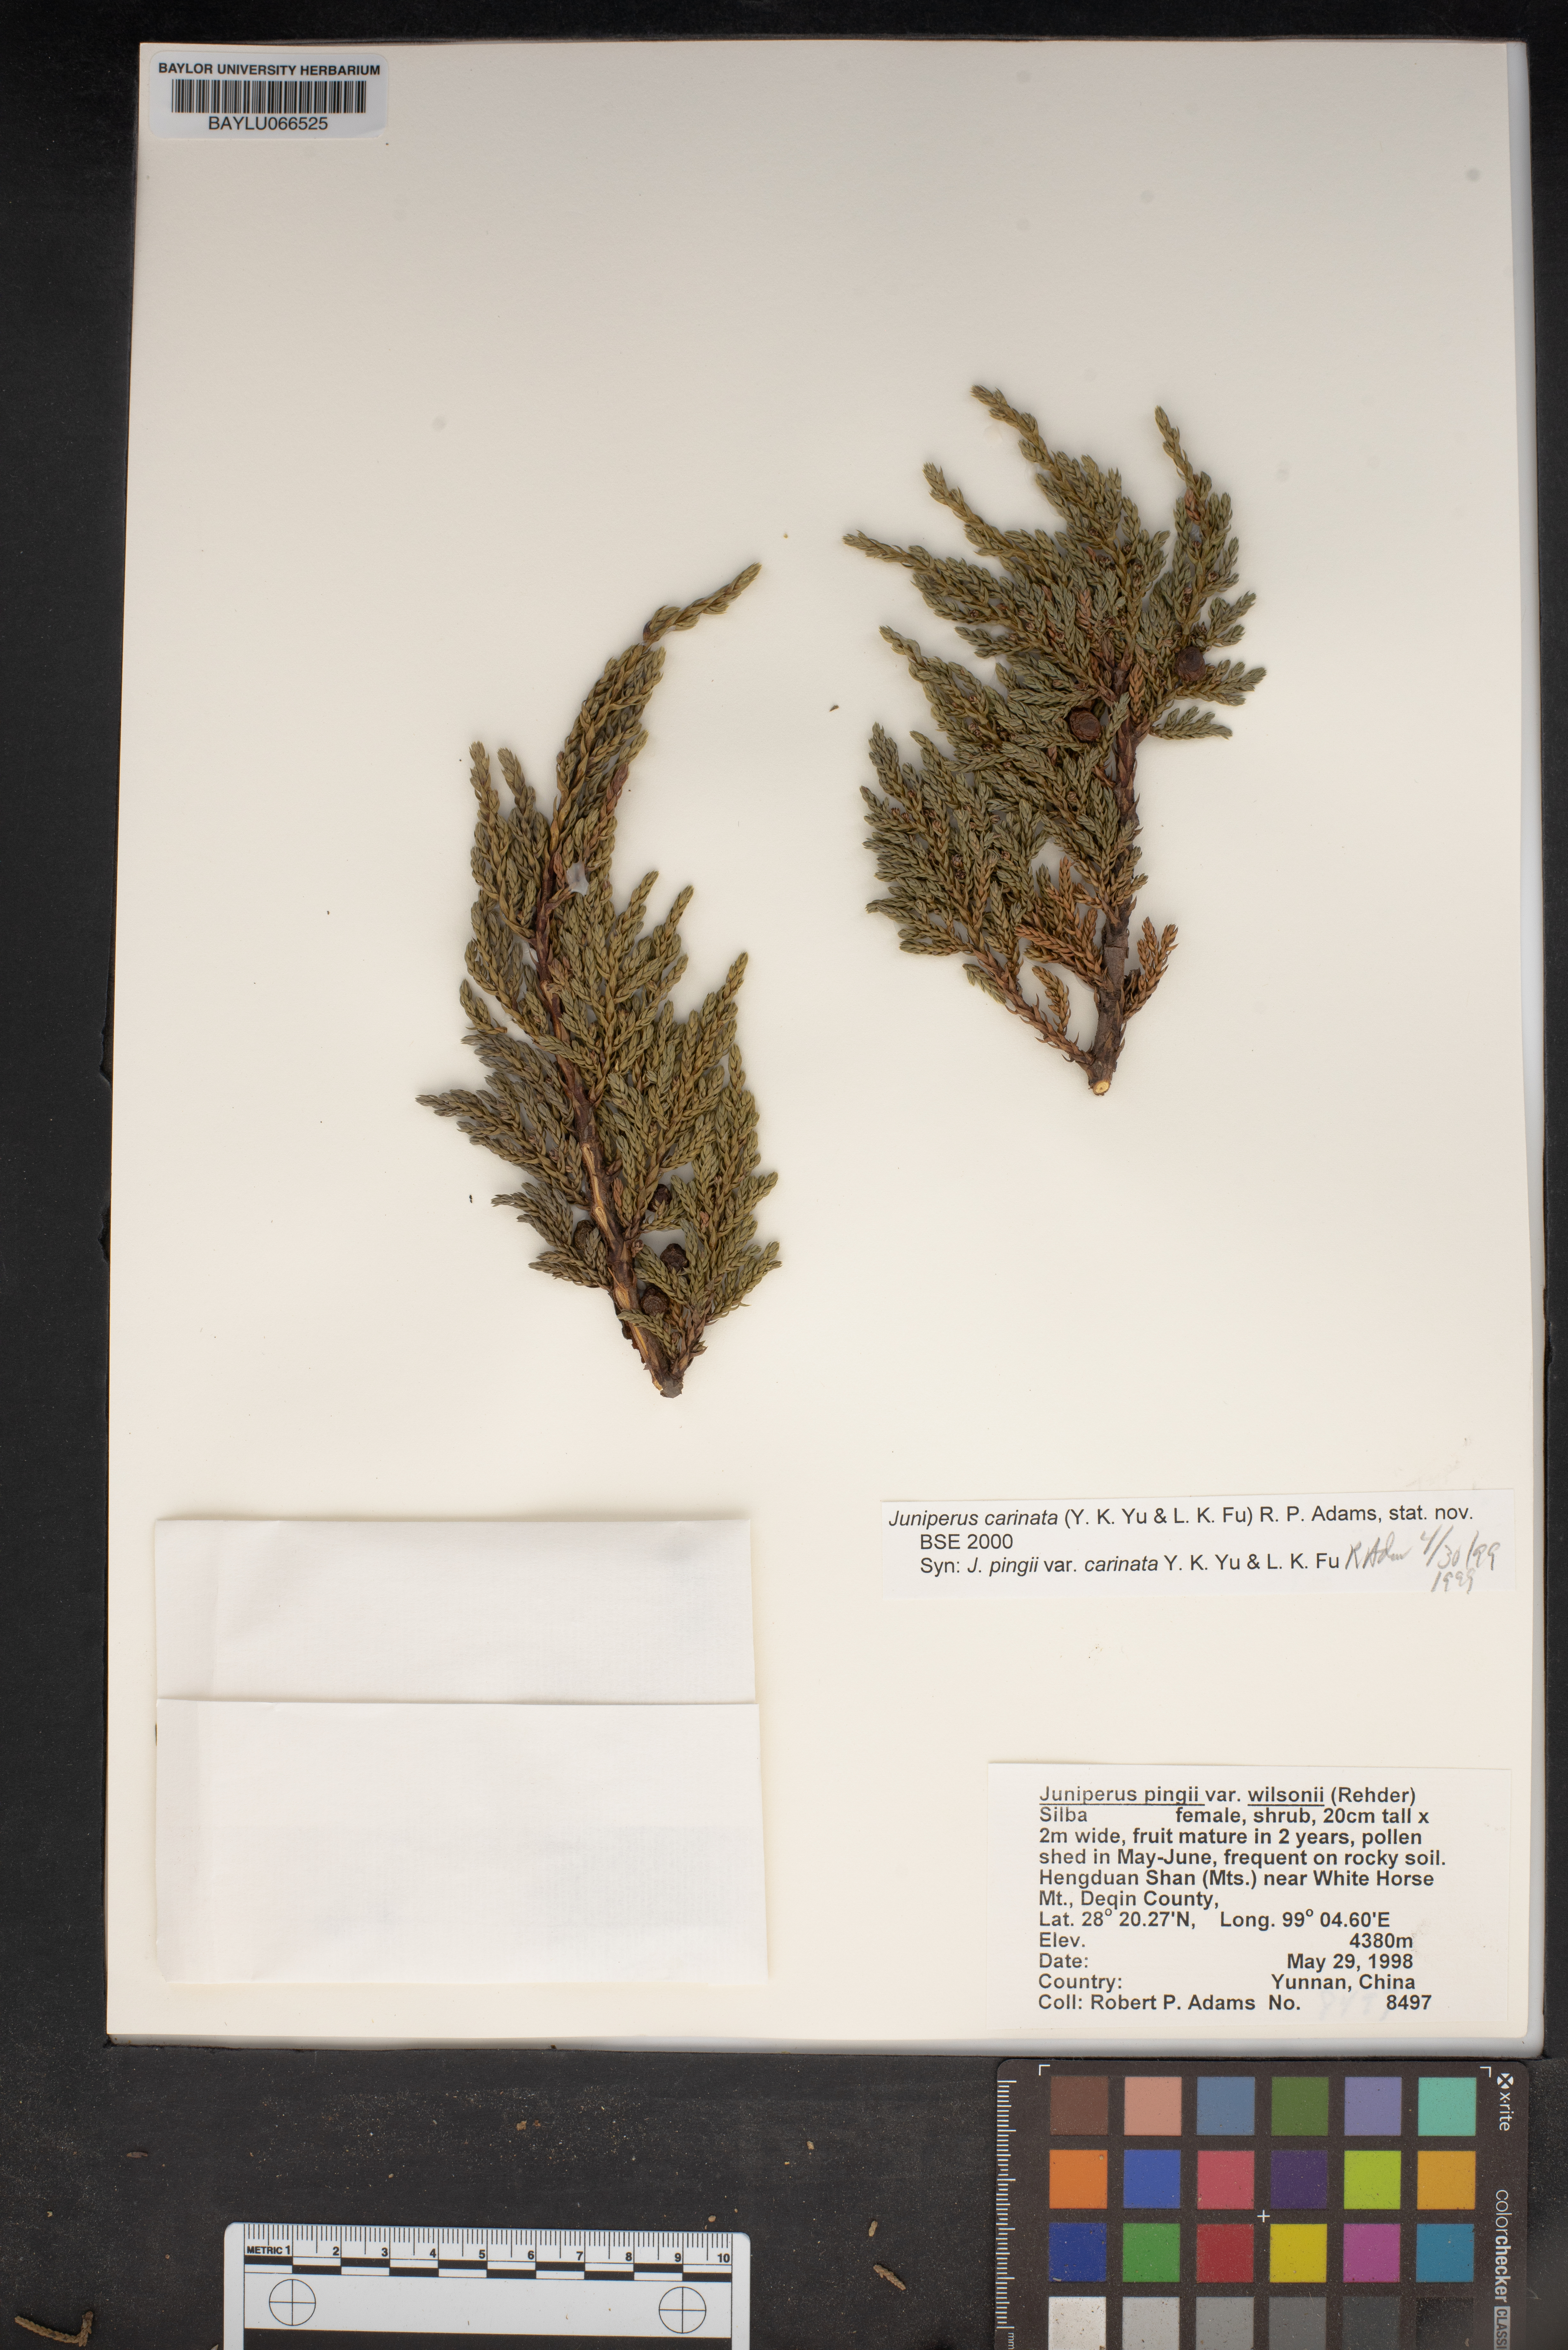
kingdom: Plantae
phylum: Tracheophyta
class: Pinopsida
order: Pinales
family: Cupressaceae
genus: Juniperus
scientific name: Juniperus pingii
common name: Ping's juniper
